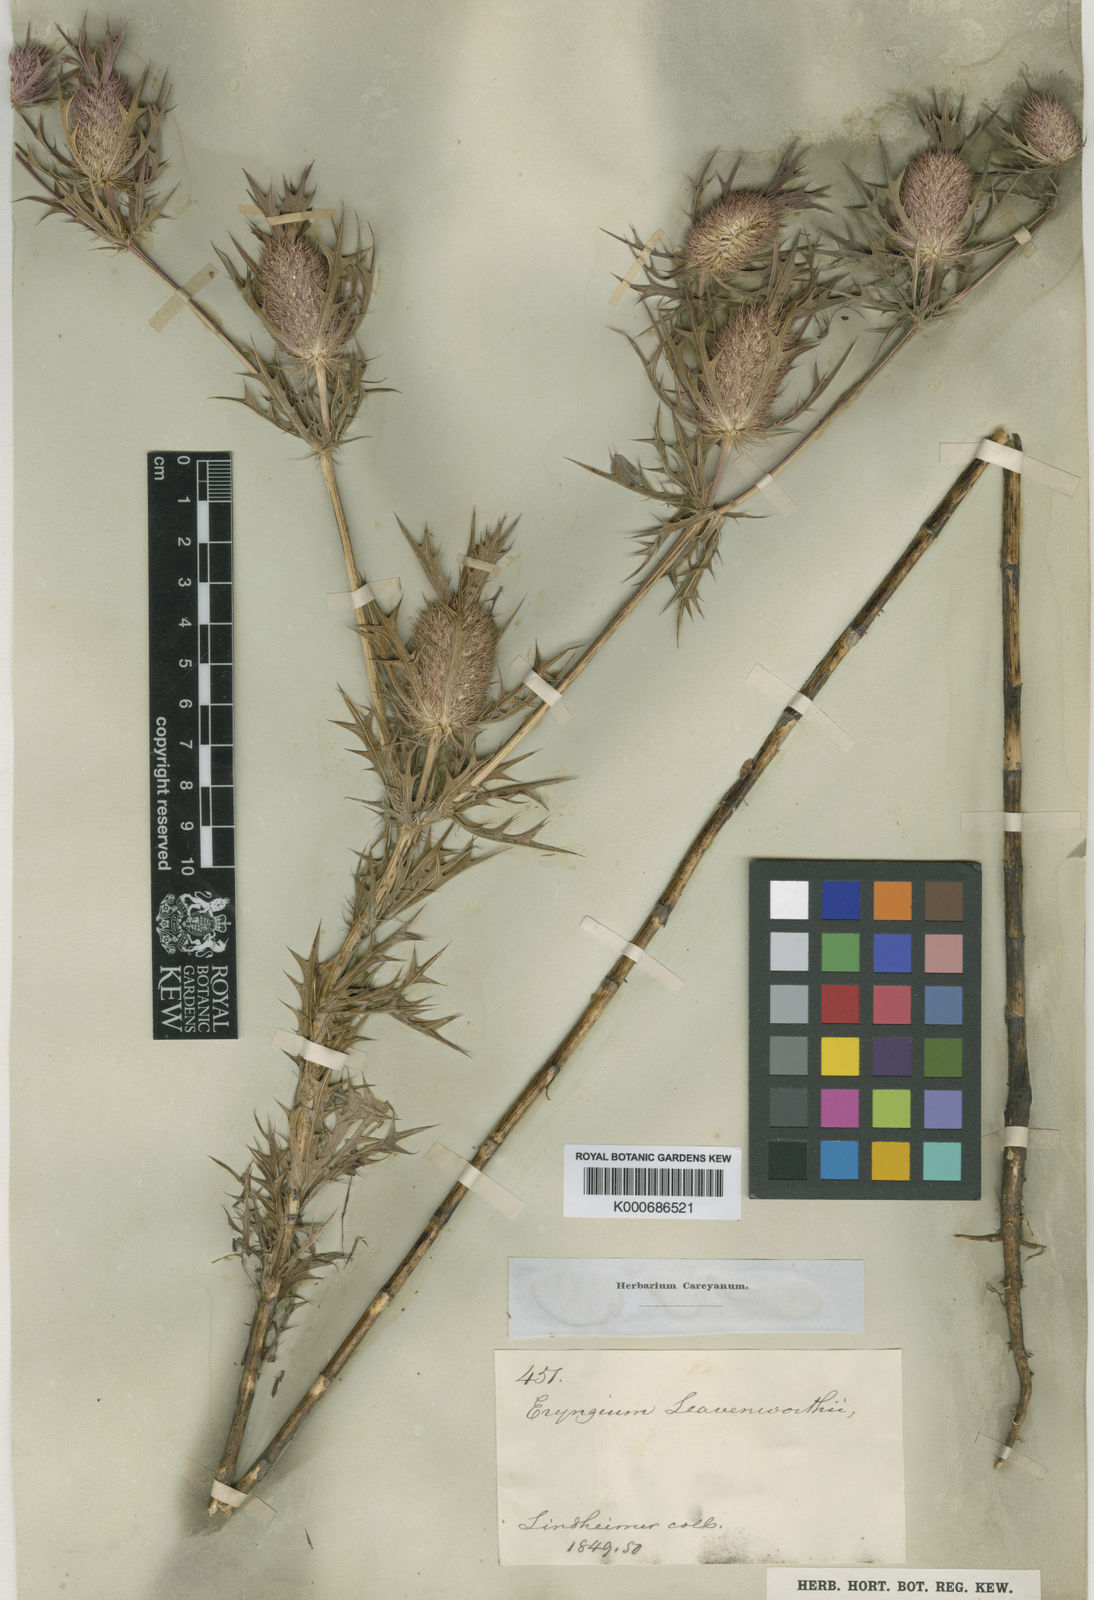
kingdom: Plantae
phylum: Tracheophyta
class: Magnoliopsida
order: Apiales
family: Apiaceae
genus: Eryngium
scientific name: Eryngium leavenworthii
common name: Leavenworth's eryngo
